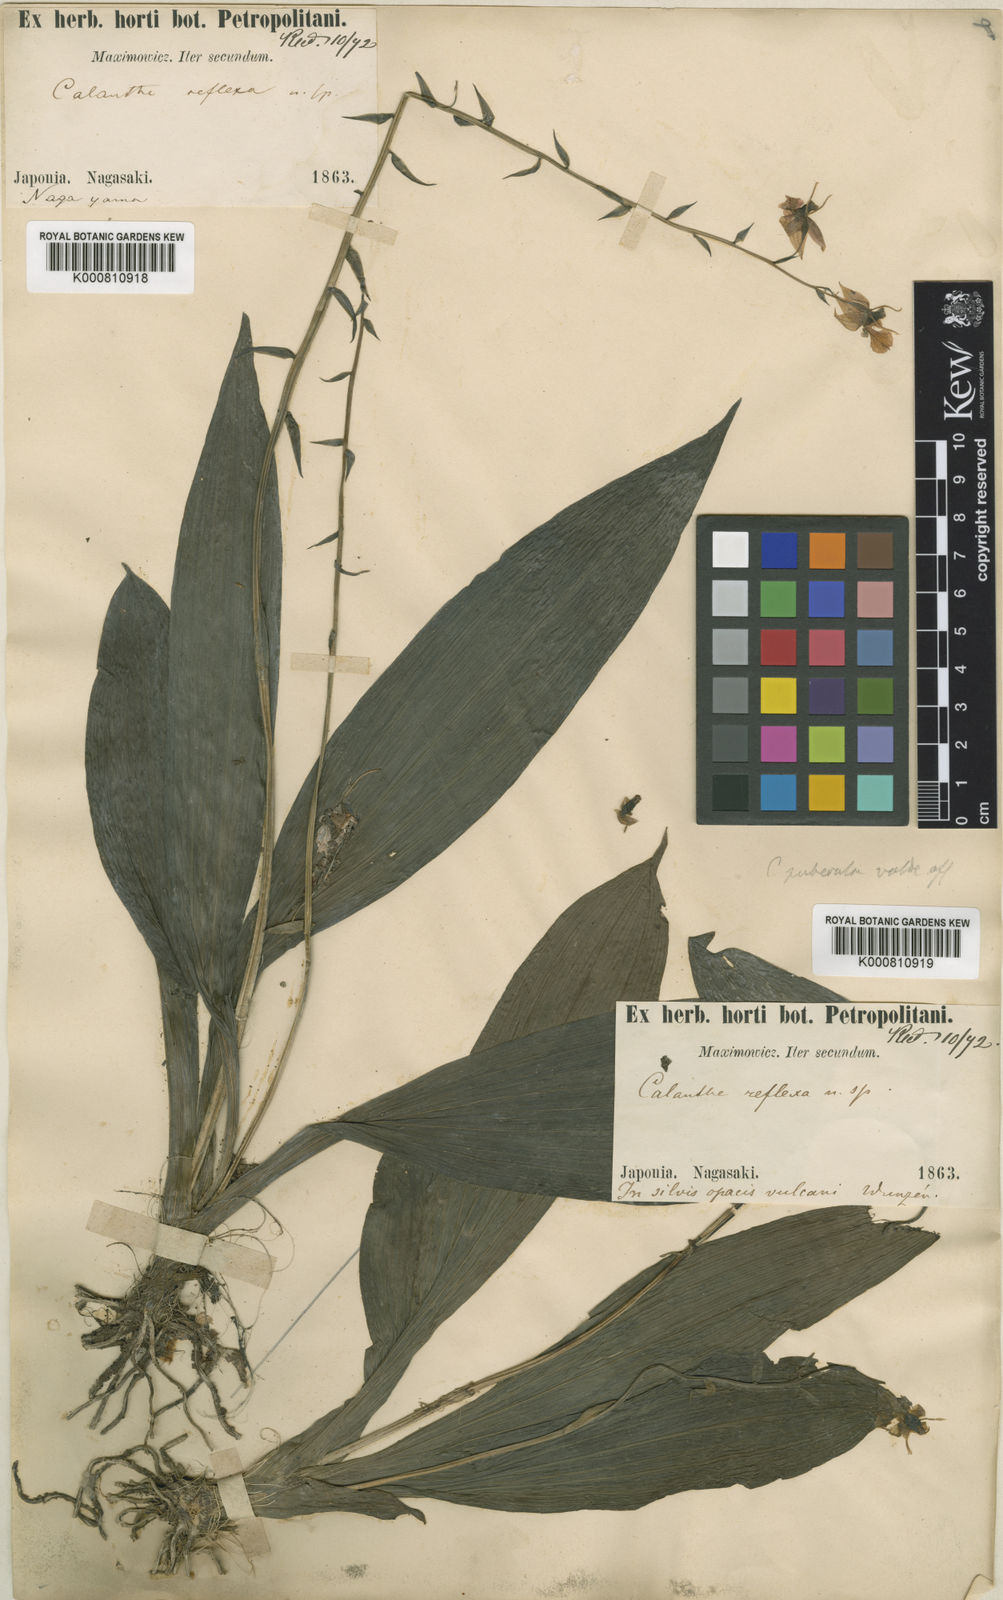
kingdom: Plantae
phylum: Tracheophyta
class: Liliopsida
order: Asparagales
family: Orchidaceae
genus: Calanthe
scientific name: Calanthe puberula
